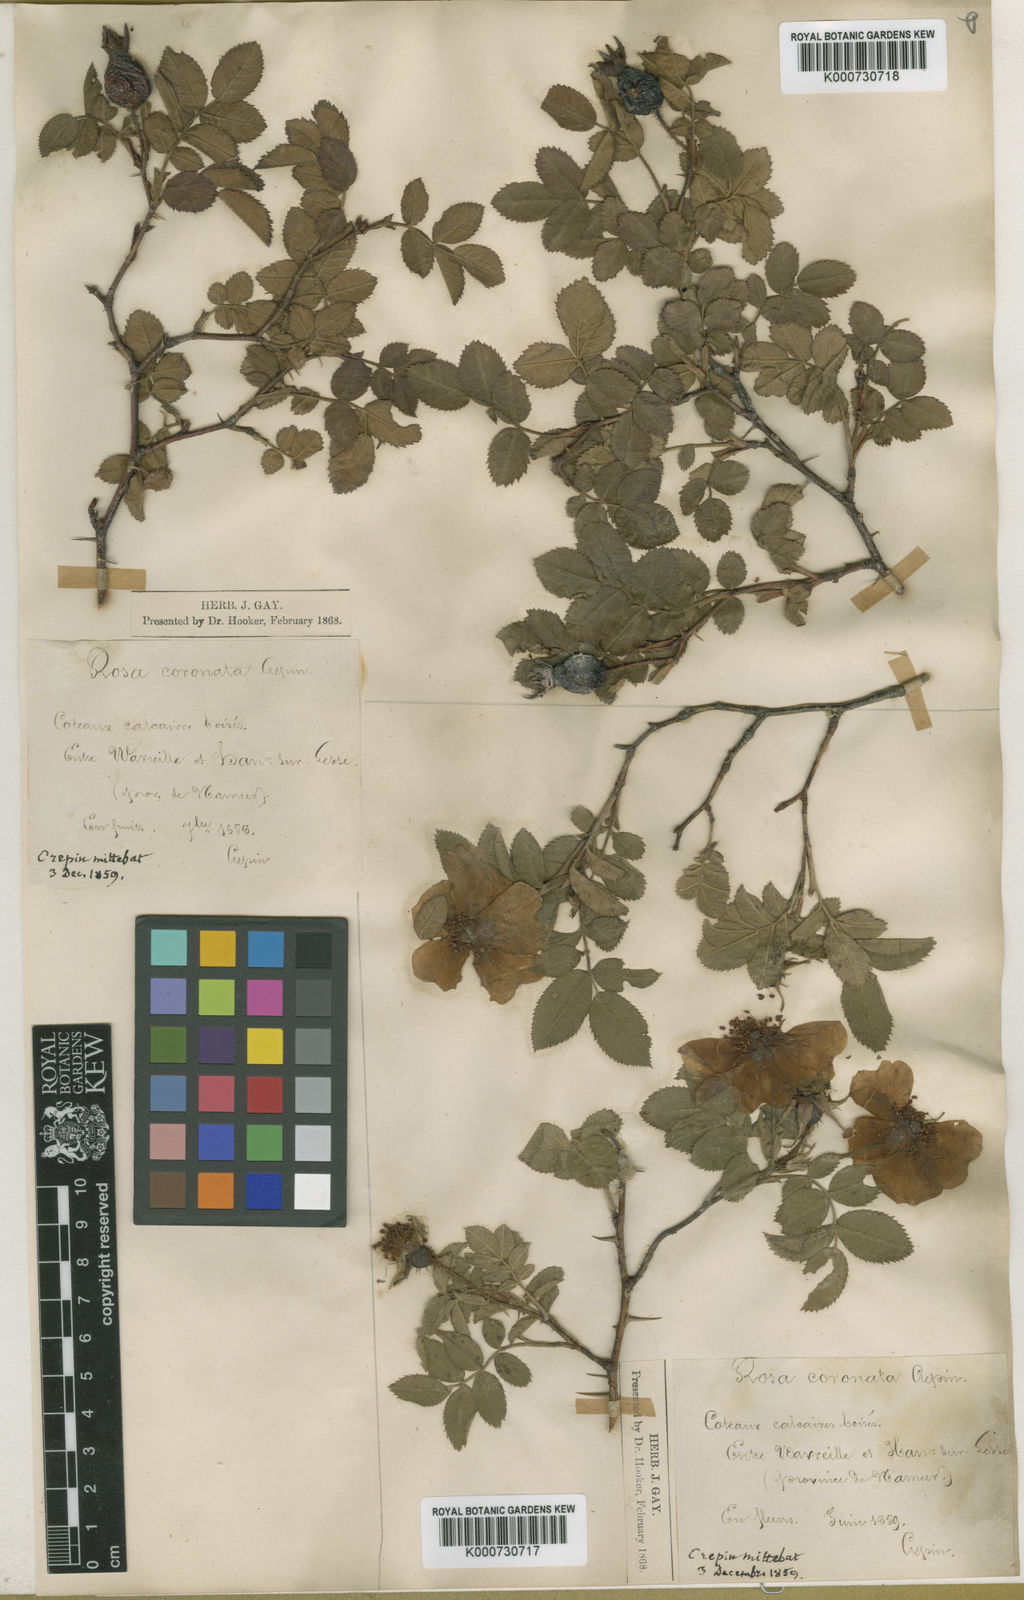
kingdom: Plantae
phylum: Tracheophyta
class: Magnoliopsida
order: Rosales
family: Rosaceae
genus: Rosa
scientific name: Rosa involuta
